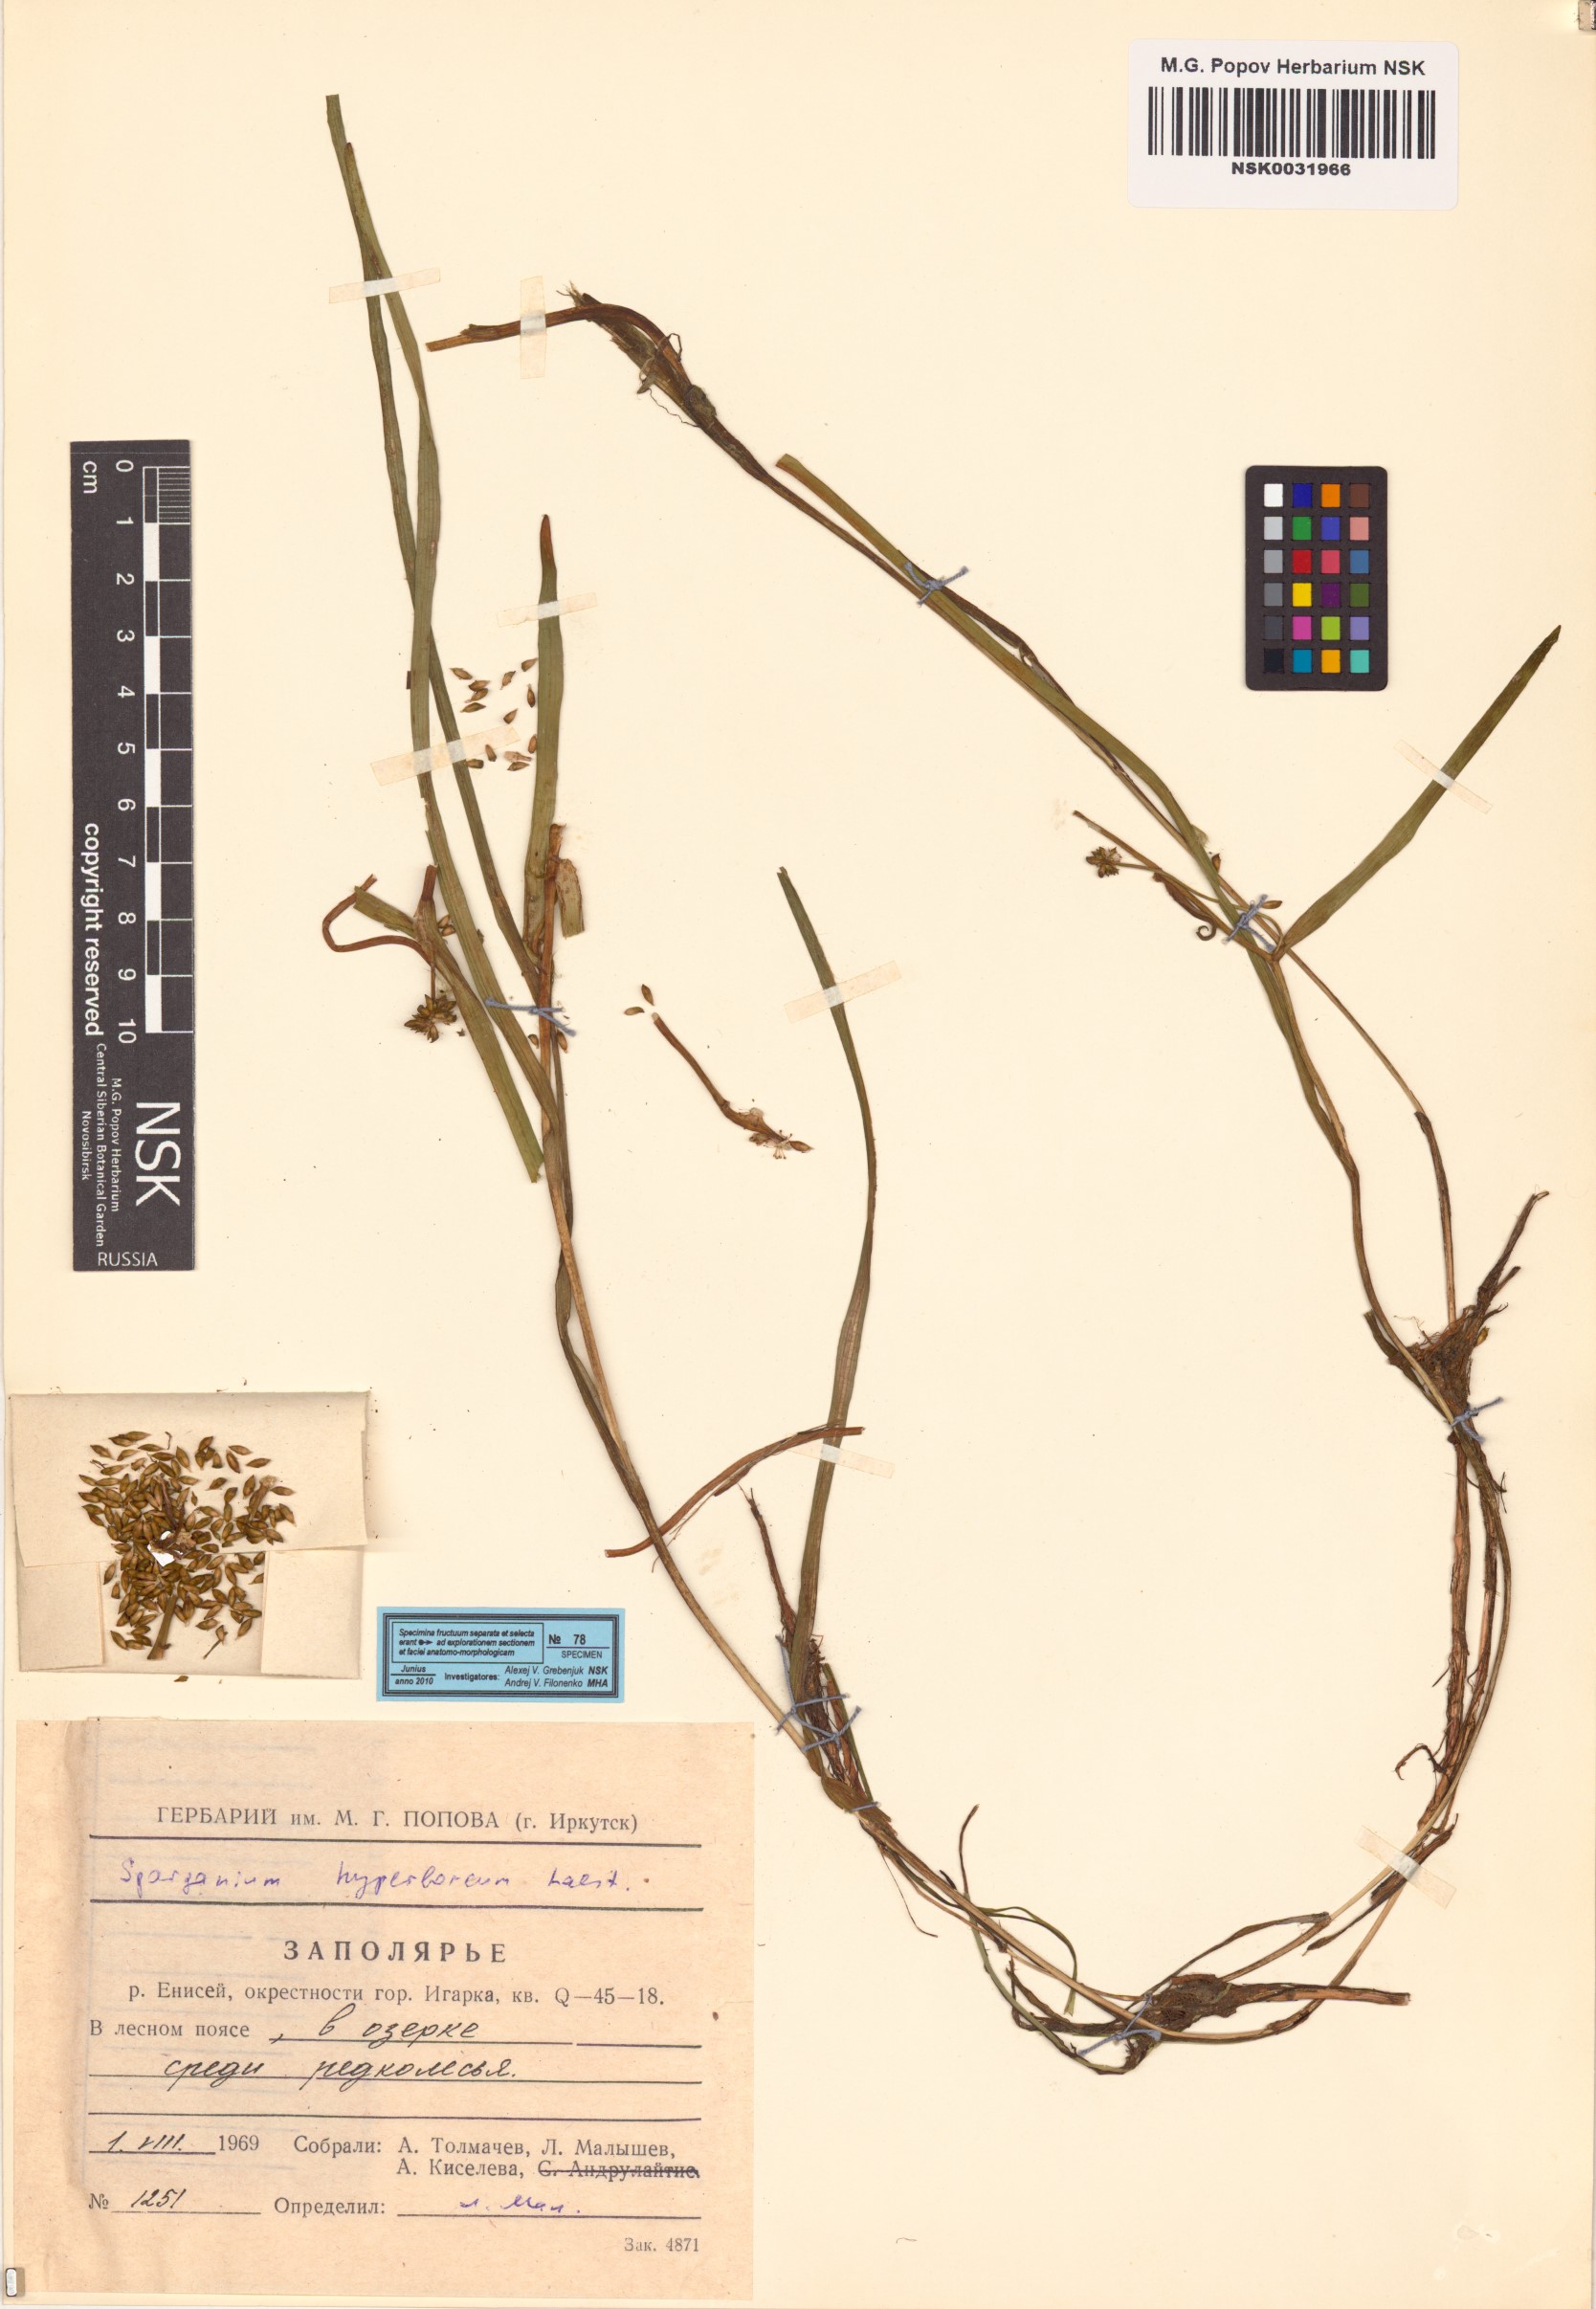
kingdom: Plantae
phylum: Tracheophyta
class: Liliopsida
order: Poales
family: Typhaceae
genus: Sparganium
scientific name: Sparganium hyperboreum
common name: Arctic burreed
